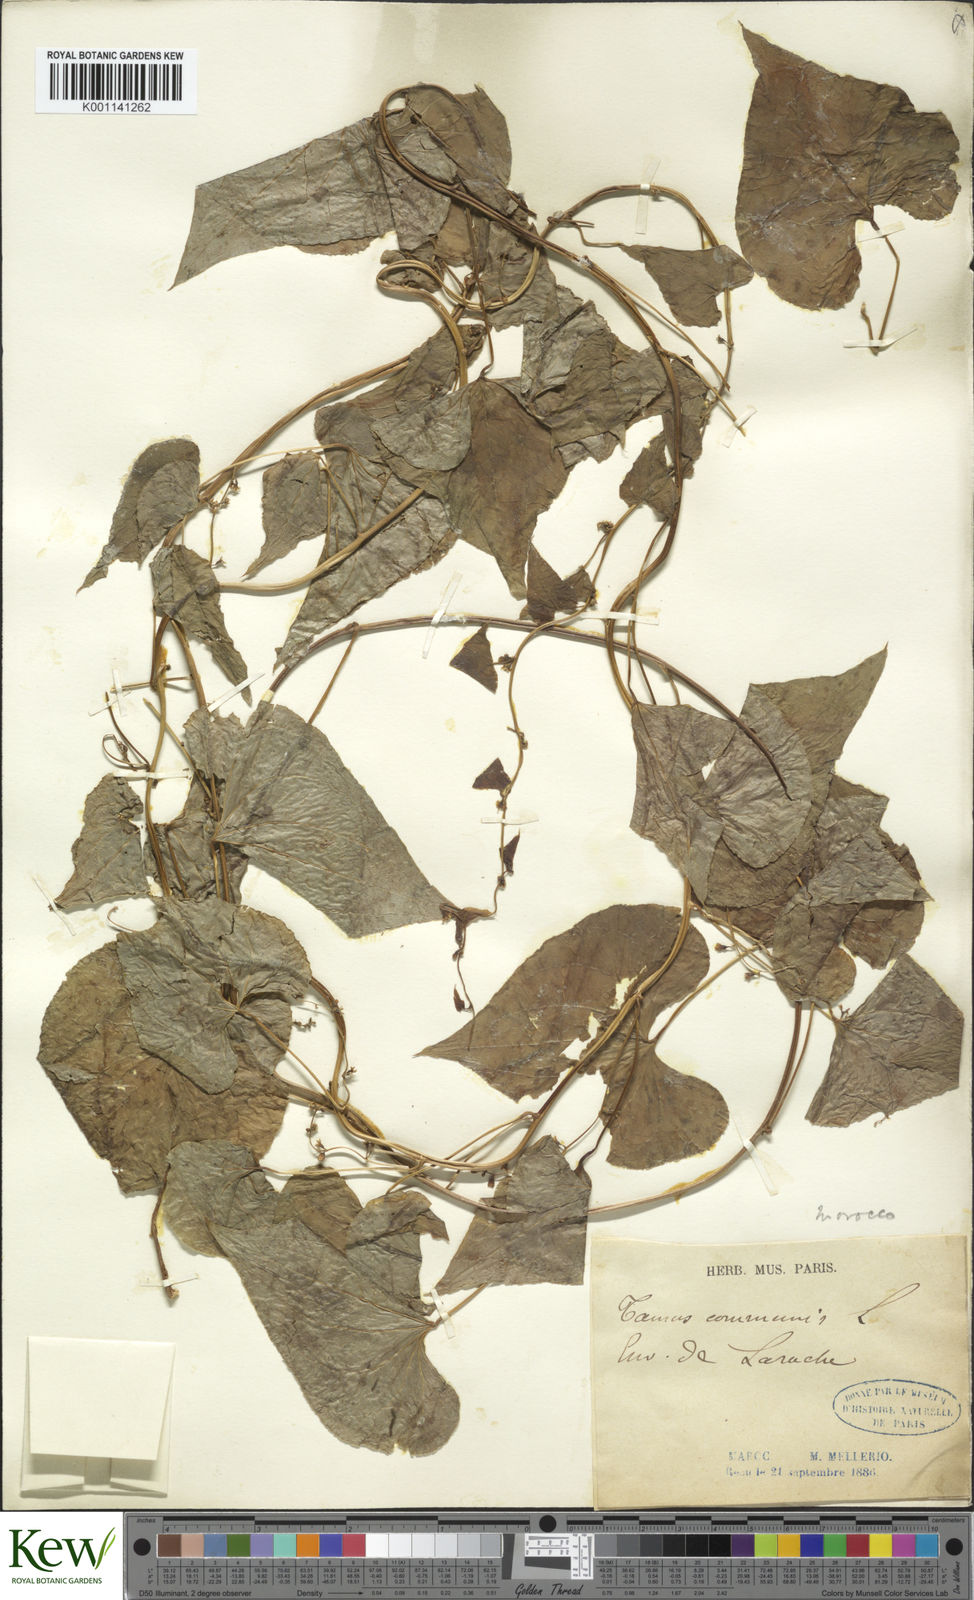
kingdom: Plantae
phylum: Tracheophyta
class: Liliopsida
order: Dioscoreales
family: Dioscoreaceae
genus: Dioscorea
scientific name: Dioscorea communis
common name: Black-bindweed
